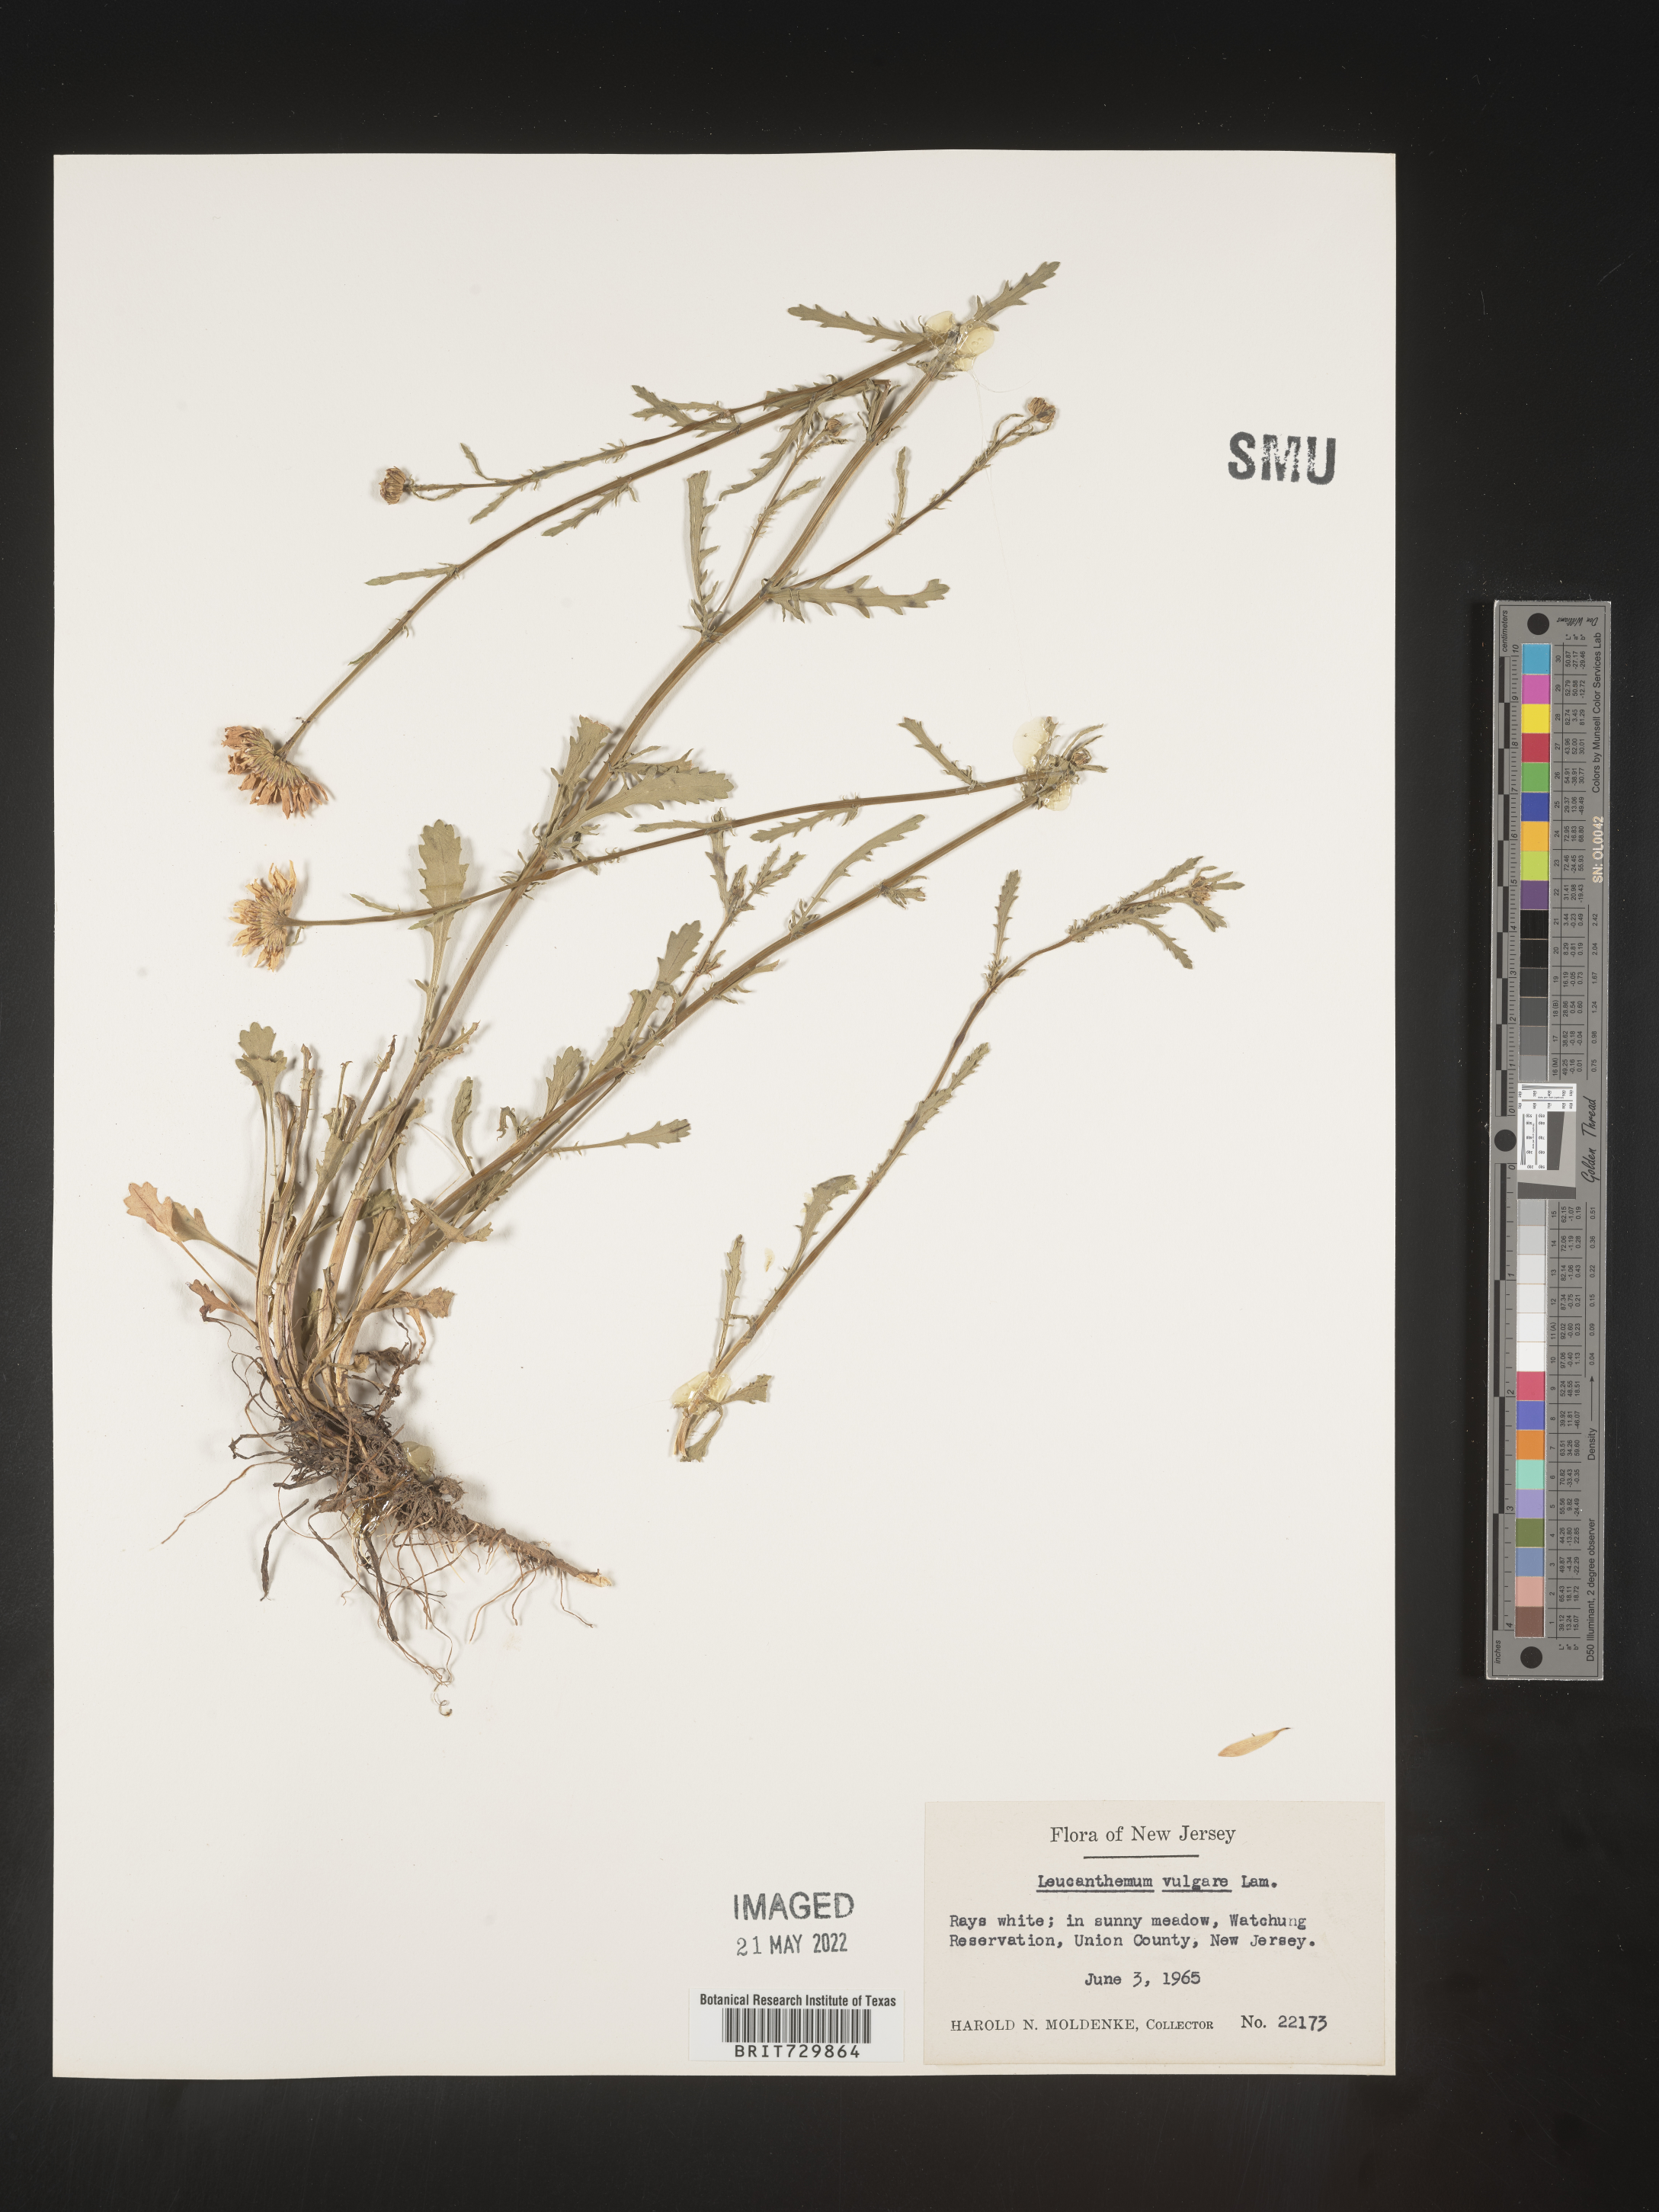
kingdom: Plantae
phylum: Tracheophyta
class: Magnoliopsida
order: Asterales
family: Asteraceae
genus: Leucanthemum
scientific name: Leucanthemum vulgare
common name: Oxeye daisy
